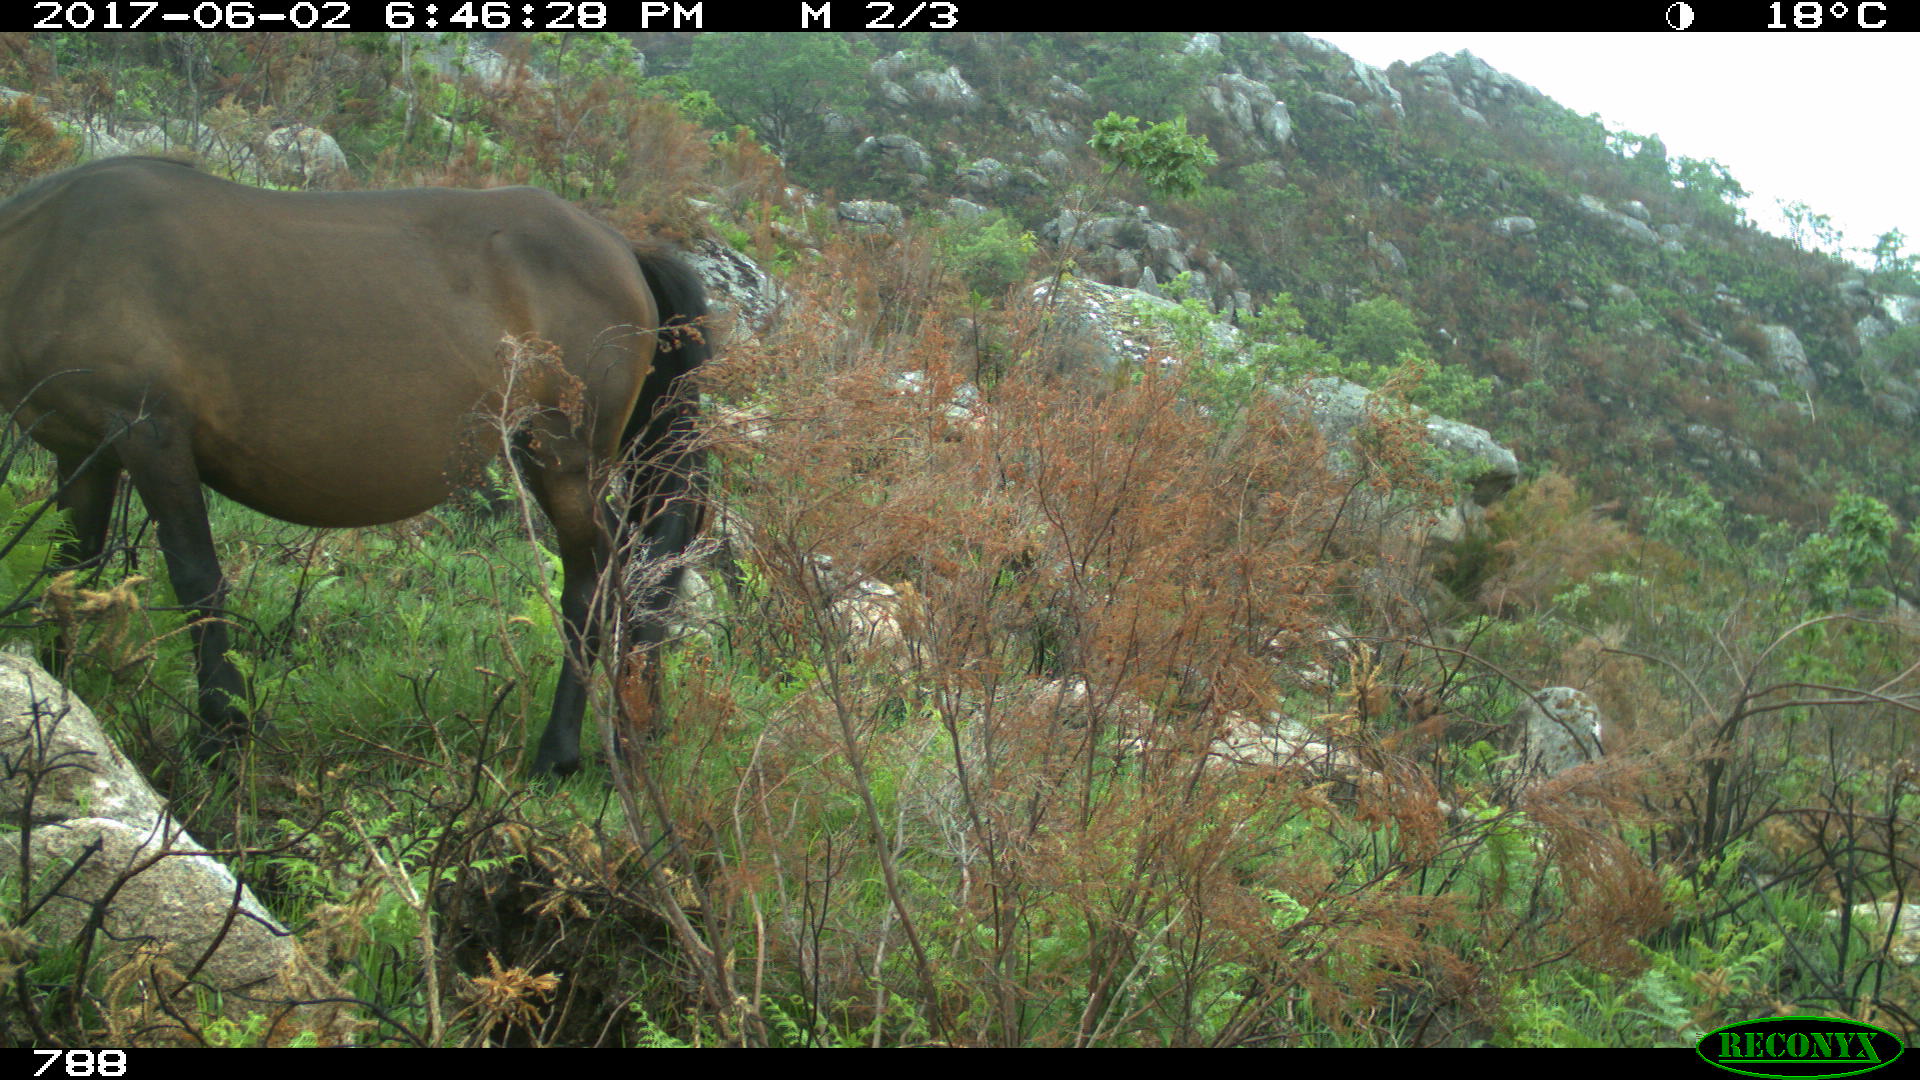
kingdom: Animalia
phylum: Chordata
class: Mammalia
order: Perissodactyla
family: Equidae
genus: Equus
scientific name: Equus caballus
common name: Horse
